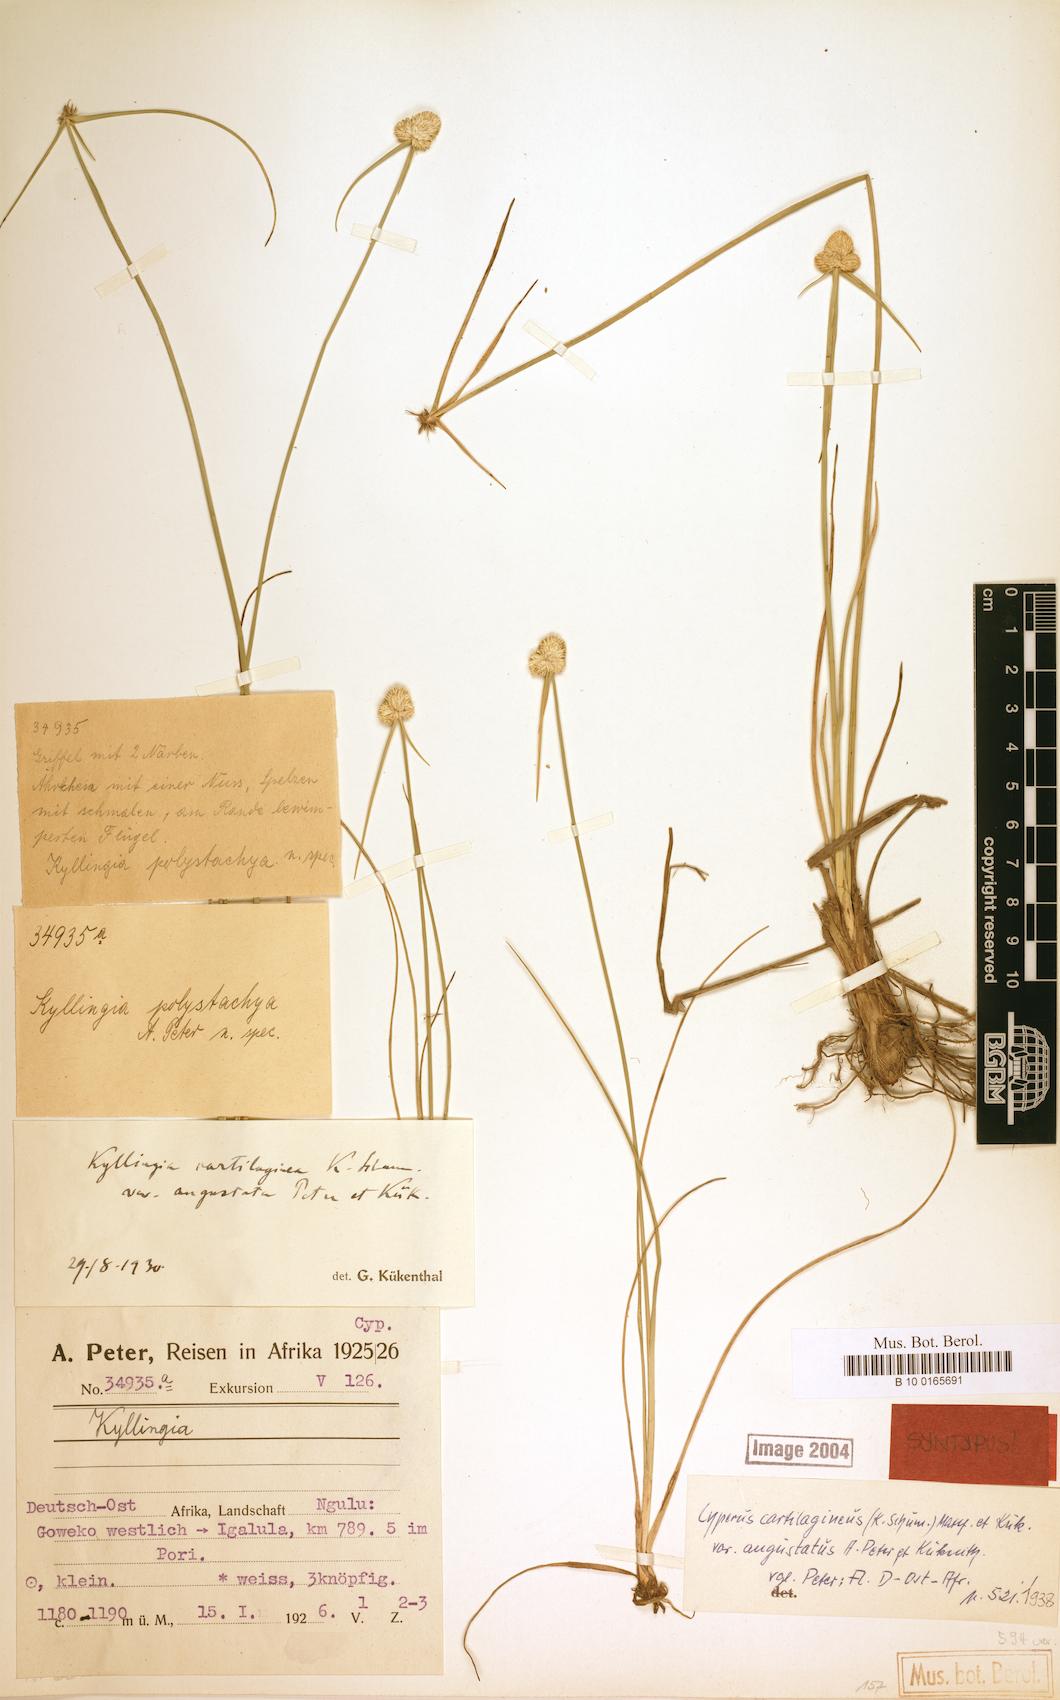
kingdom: Plantae
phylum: Tracheophyta
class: Liliopsida
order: Poales
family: Cyperaceae
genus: Cyperus
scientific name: Cyperus comosipes
